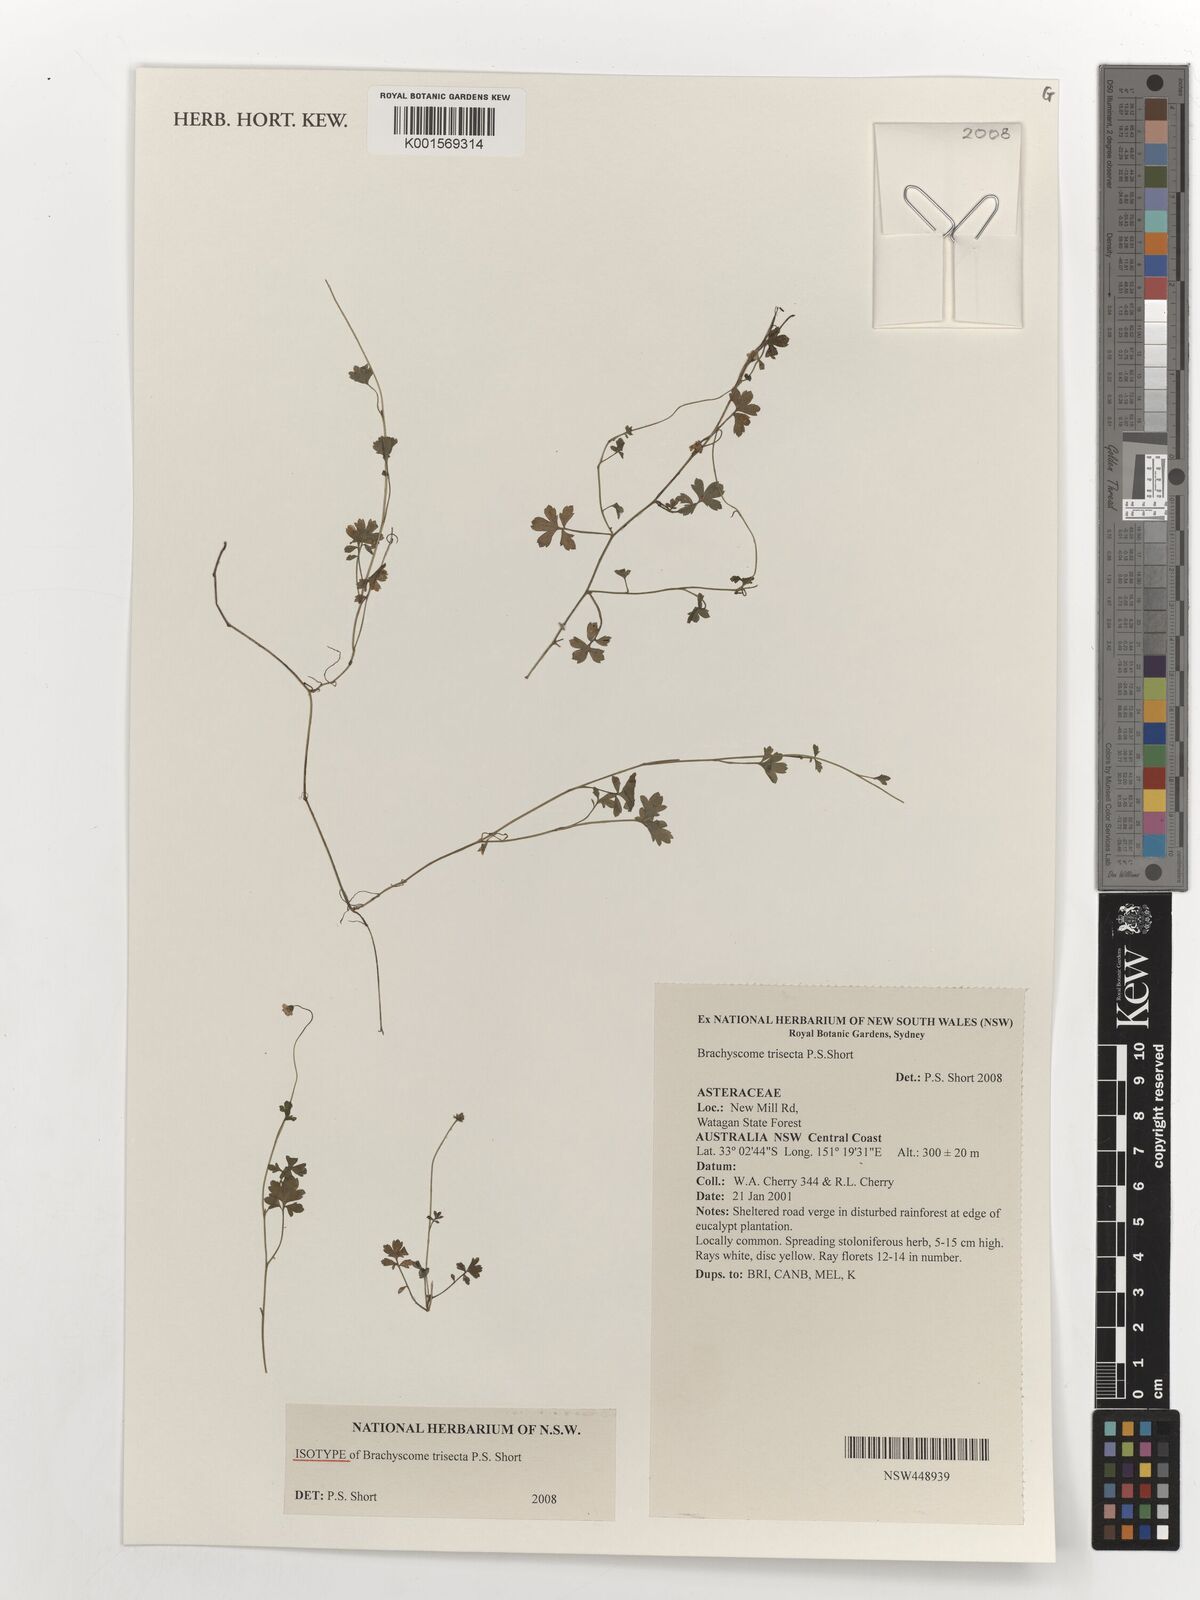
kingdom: Plantae
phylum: Tracheophyta
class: Magnoliopsida
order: Asterales
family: Asteraceae
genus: Brachyscome
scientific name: Brachyscome trisecta
